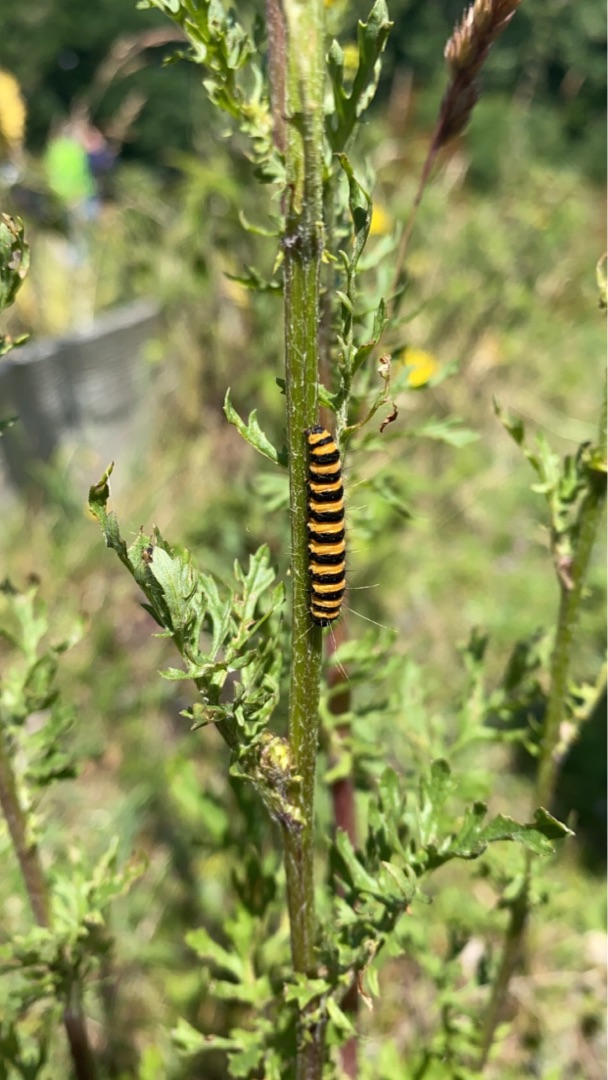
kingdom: Animalia
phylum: Arthropoda
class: Insecta
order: Lepidoptera
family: Erebidae
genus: Tyria
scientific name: Tyria jacobaeae
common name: Blodplet
